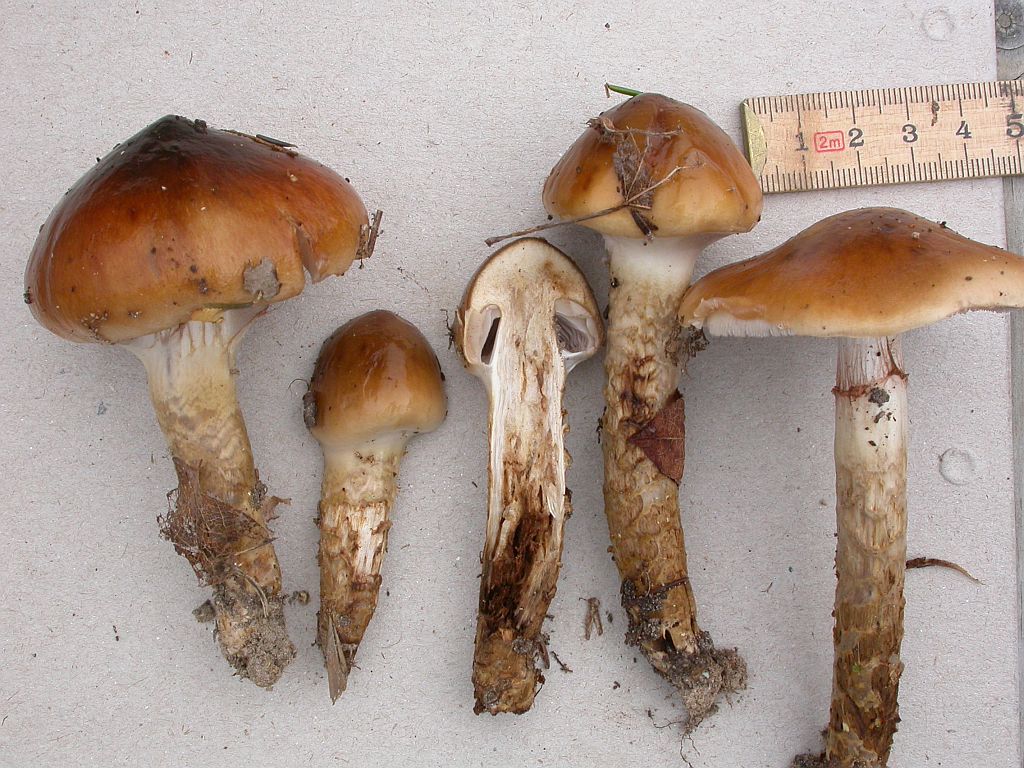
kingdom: Fungi
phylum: Basidiomycota
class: Agaricomycetes
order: Agaricales
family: Cortinariaceae
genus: Cortinarius
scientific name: Cortinarius trivialis
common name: brunslimet slørhat
